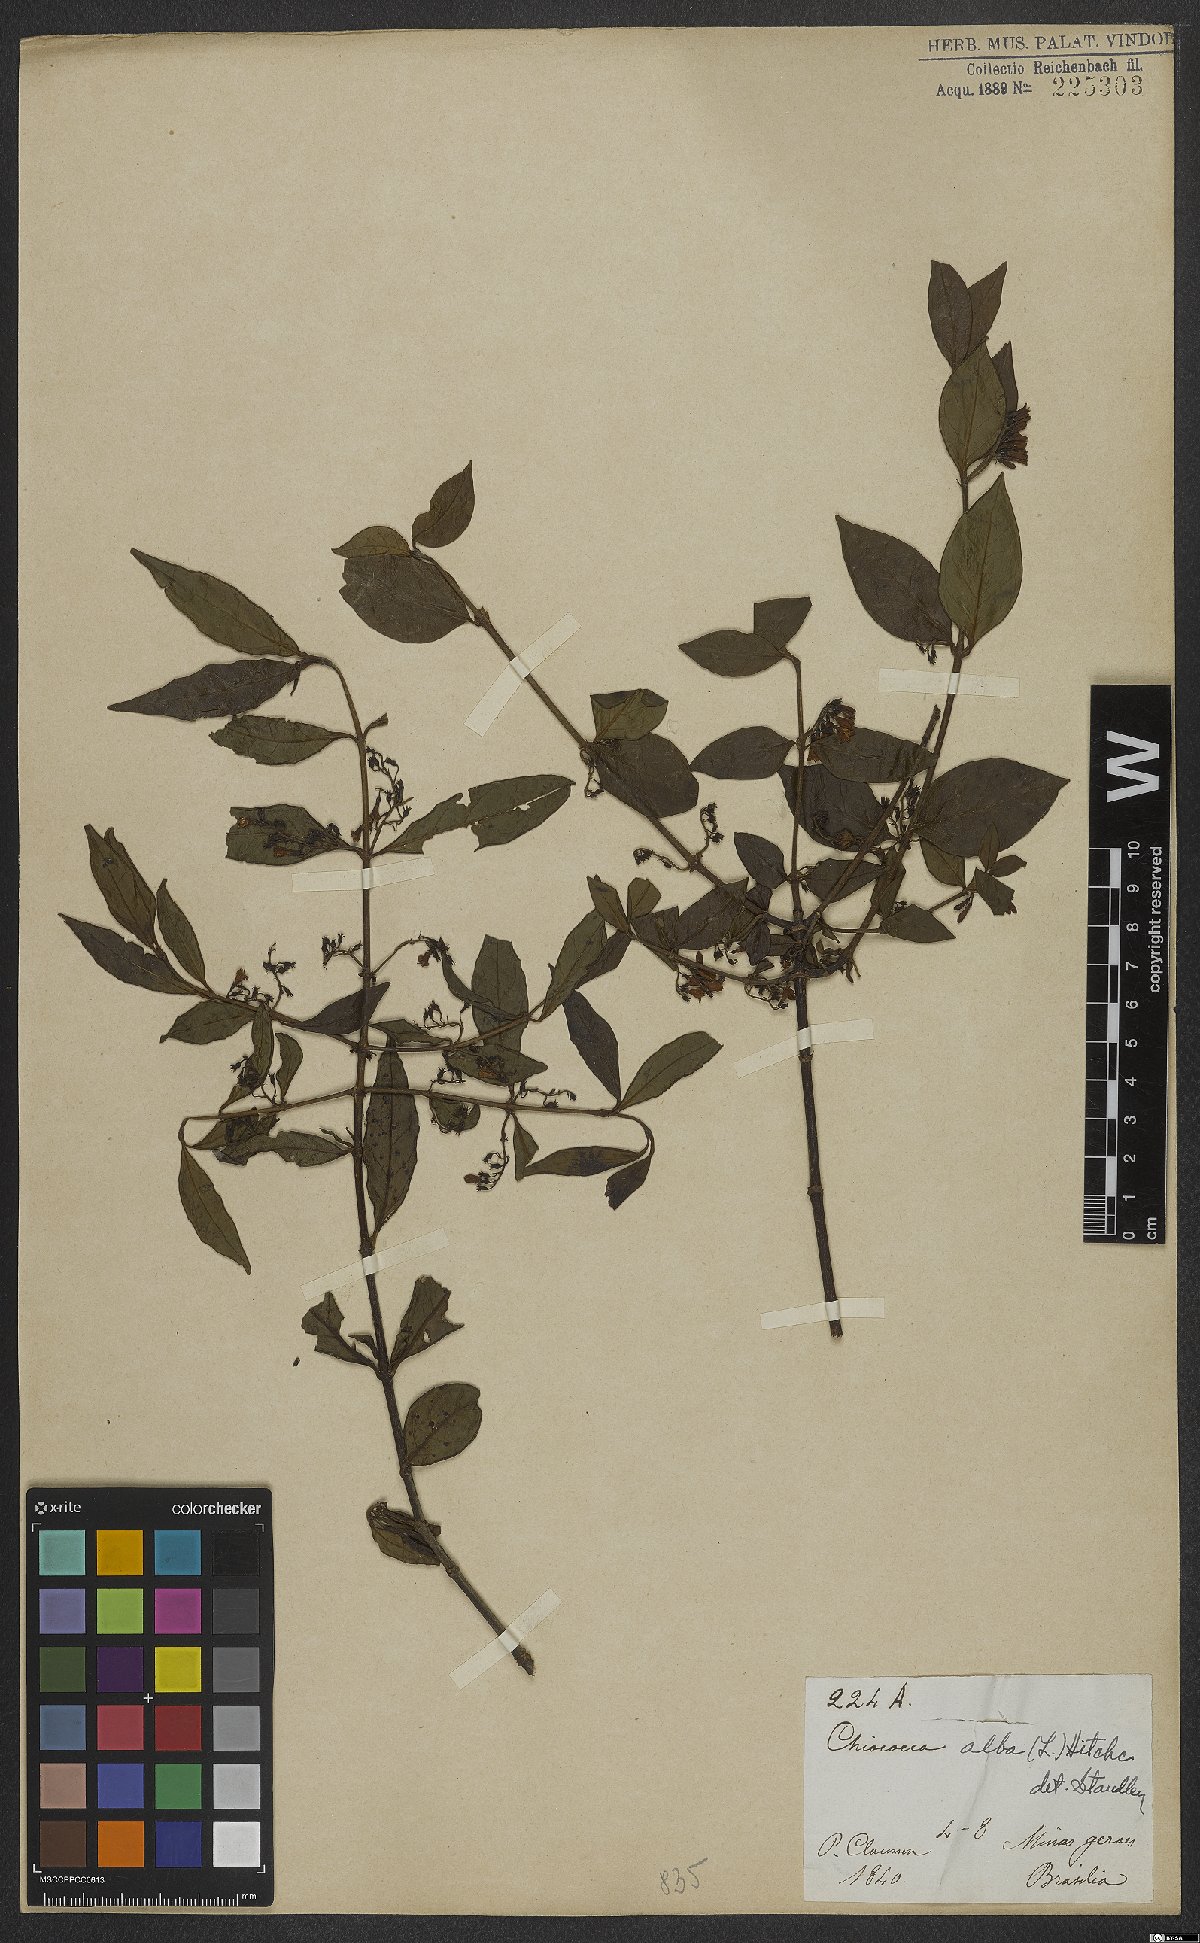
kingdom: Plantae
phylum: Tracheophyta
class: Magnoliopsida
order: Gentianales
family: Rubiaceae
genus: Chiococca
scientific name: Chiococca alba
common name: Snowberry
